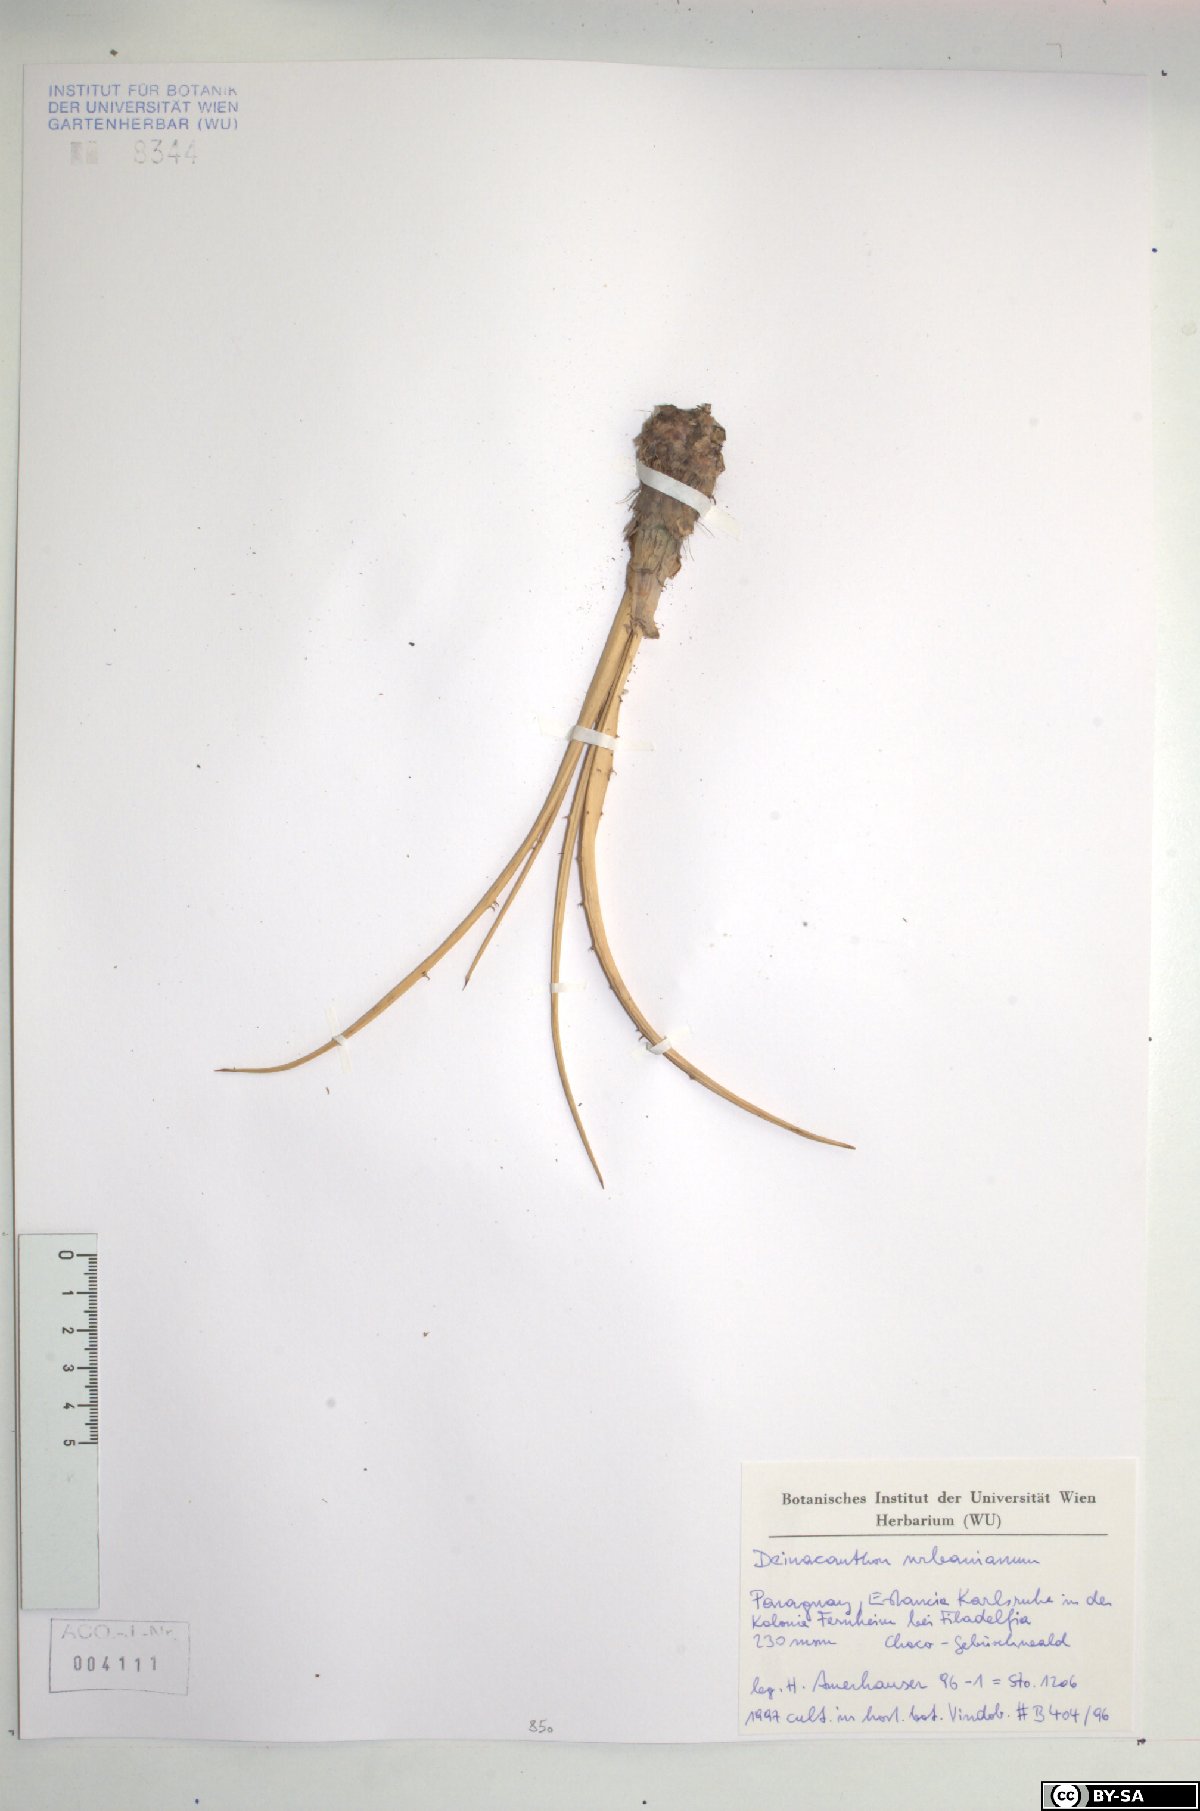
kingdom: Plantae
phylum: Tracheophyta
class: Liliopsida
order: Poales
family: Bromeliaceae
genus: Deinacanthon
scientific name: Deinacanthon urbanianum
